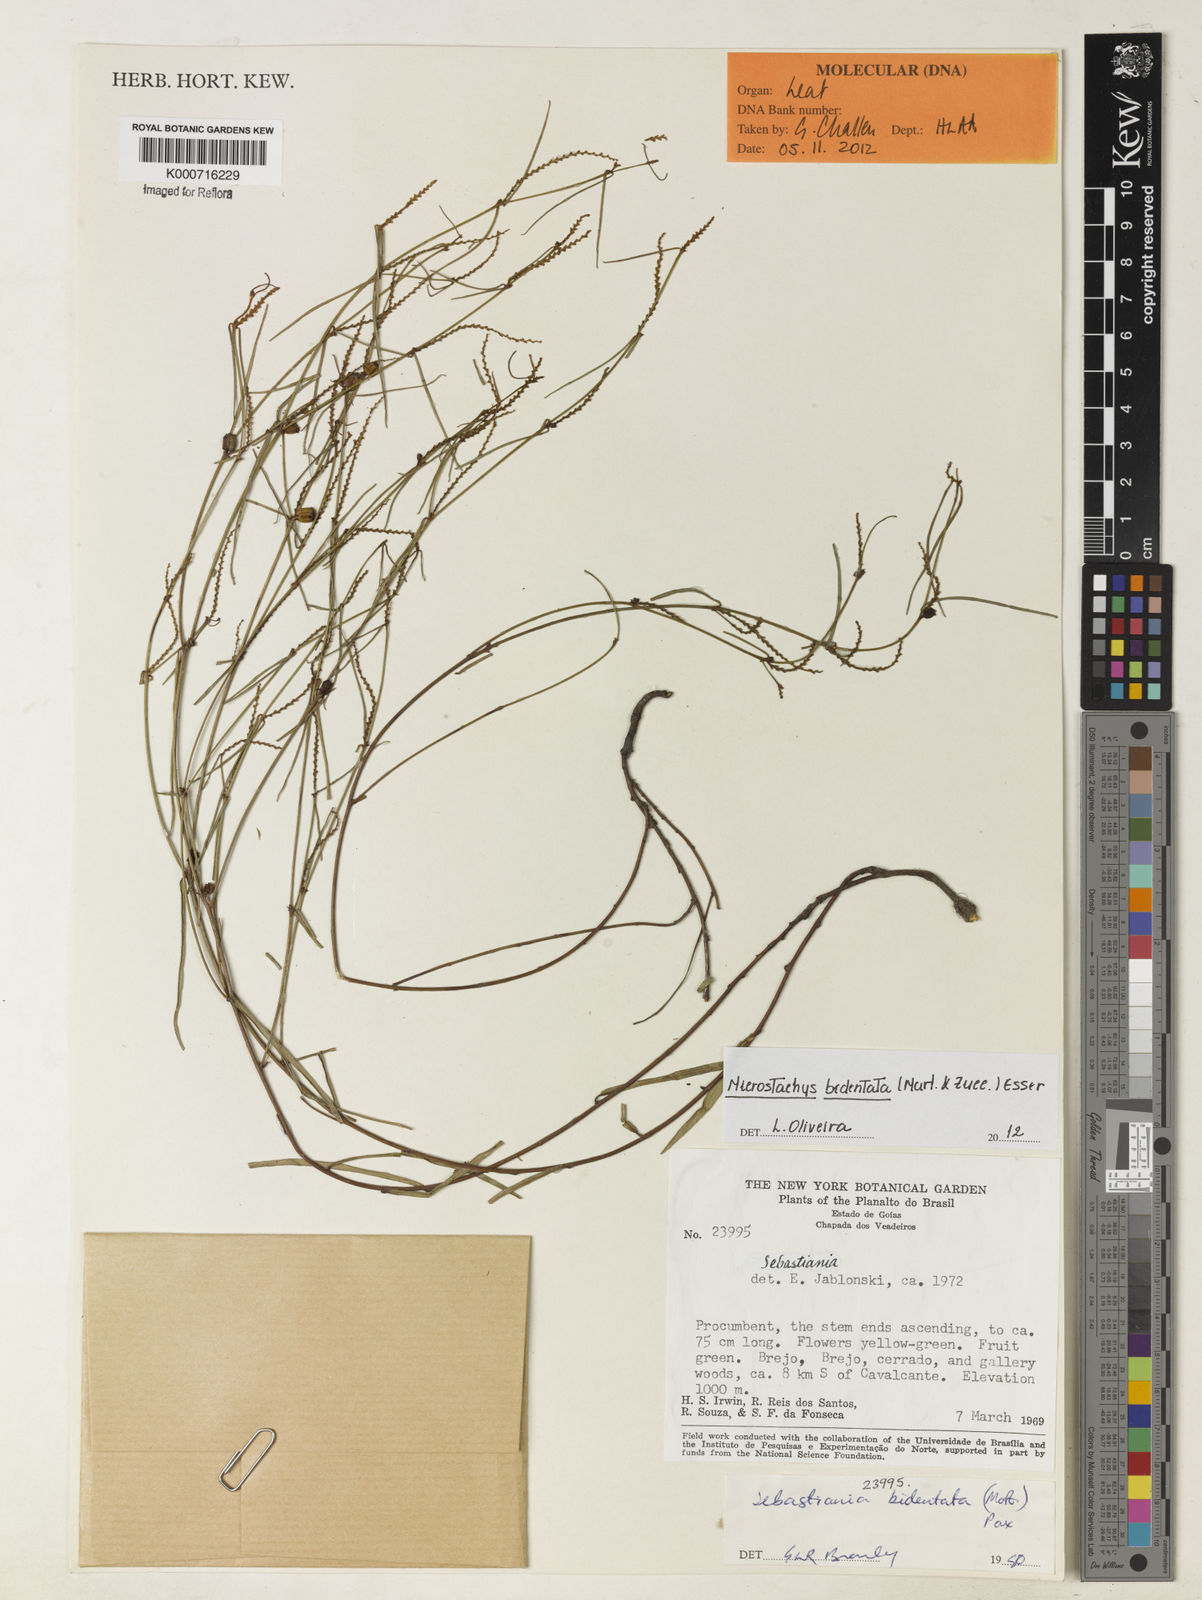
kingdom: Plantae
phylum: Tracheophyta
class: Magnoliopsida
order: Malpighiales
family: Euphorbiaceae
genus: Microstachys
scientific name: Microstachys bidentata
